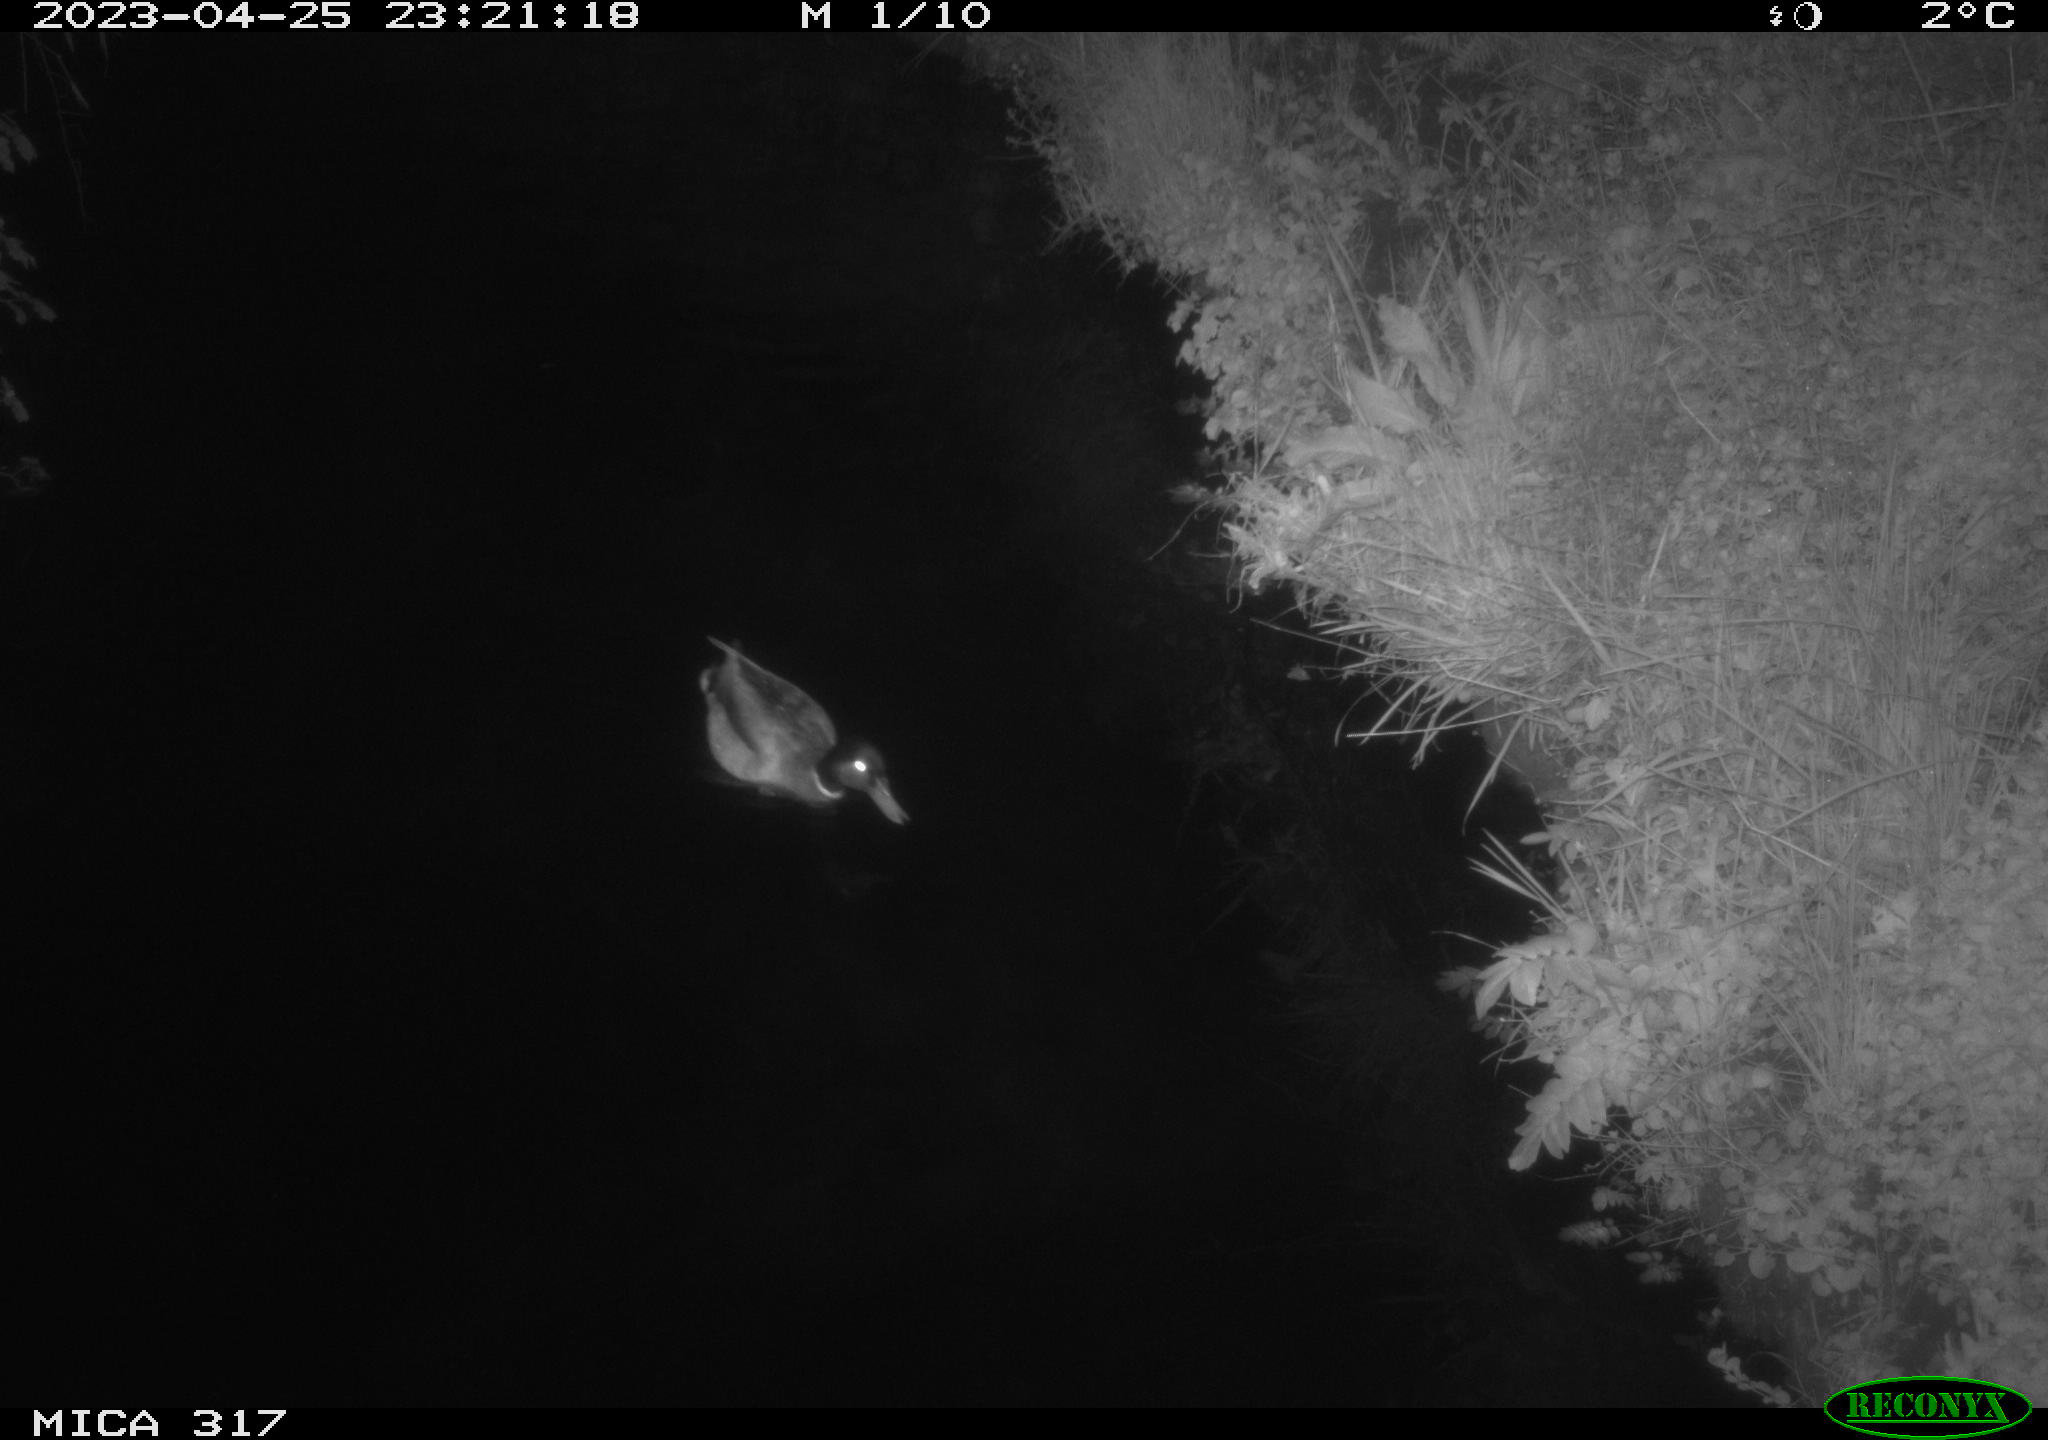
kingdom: Animalia
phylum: Chordata
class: Aves
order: Anseriformes
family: Anatidae
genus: Anas
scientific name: Anas
